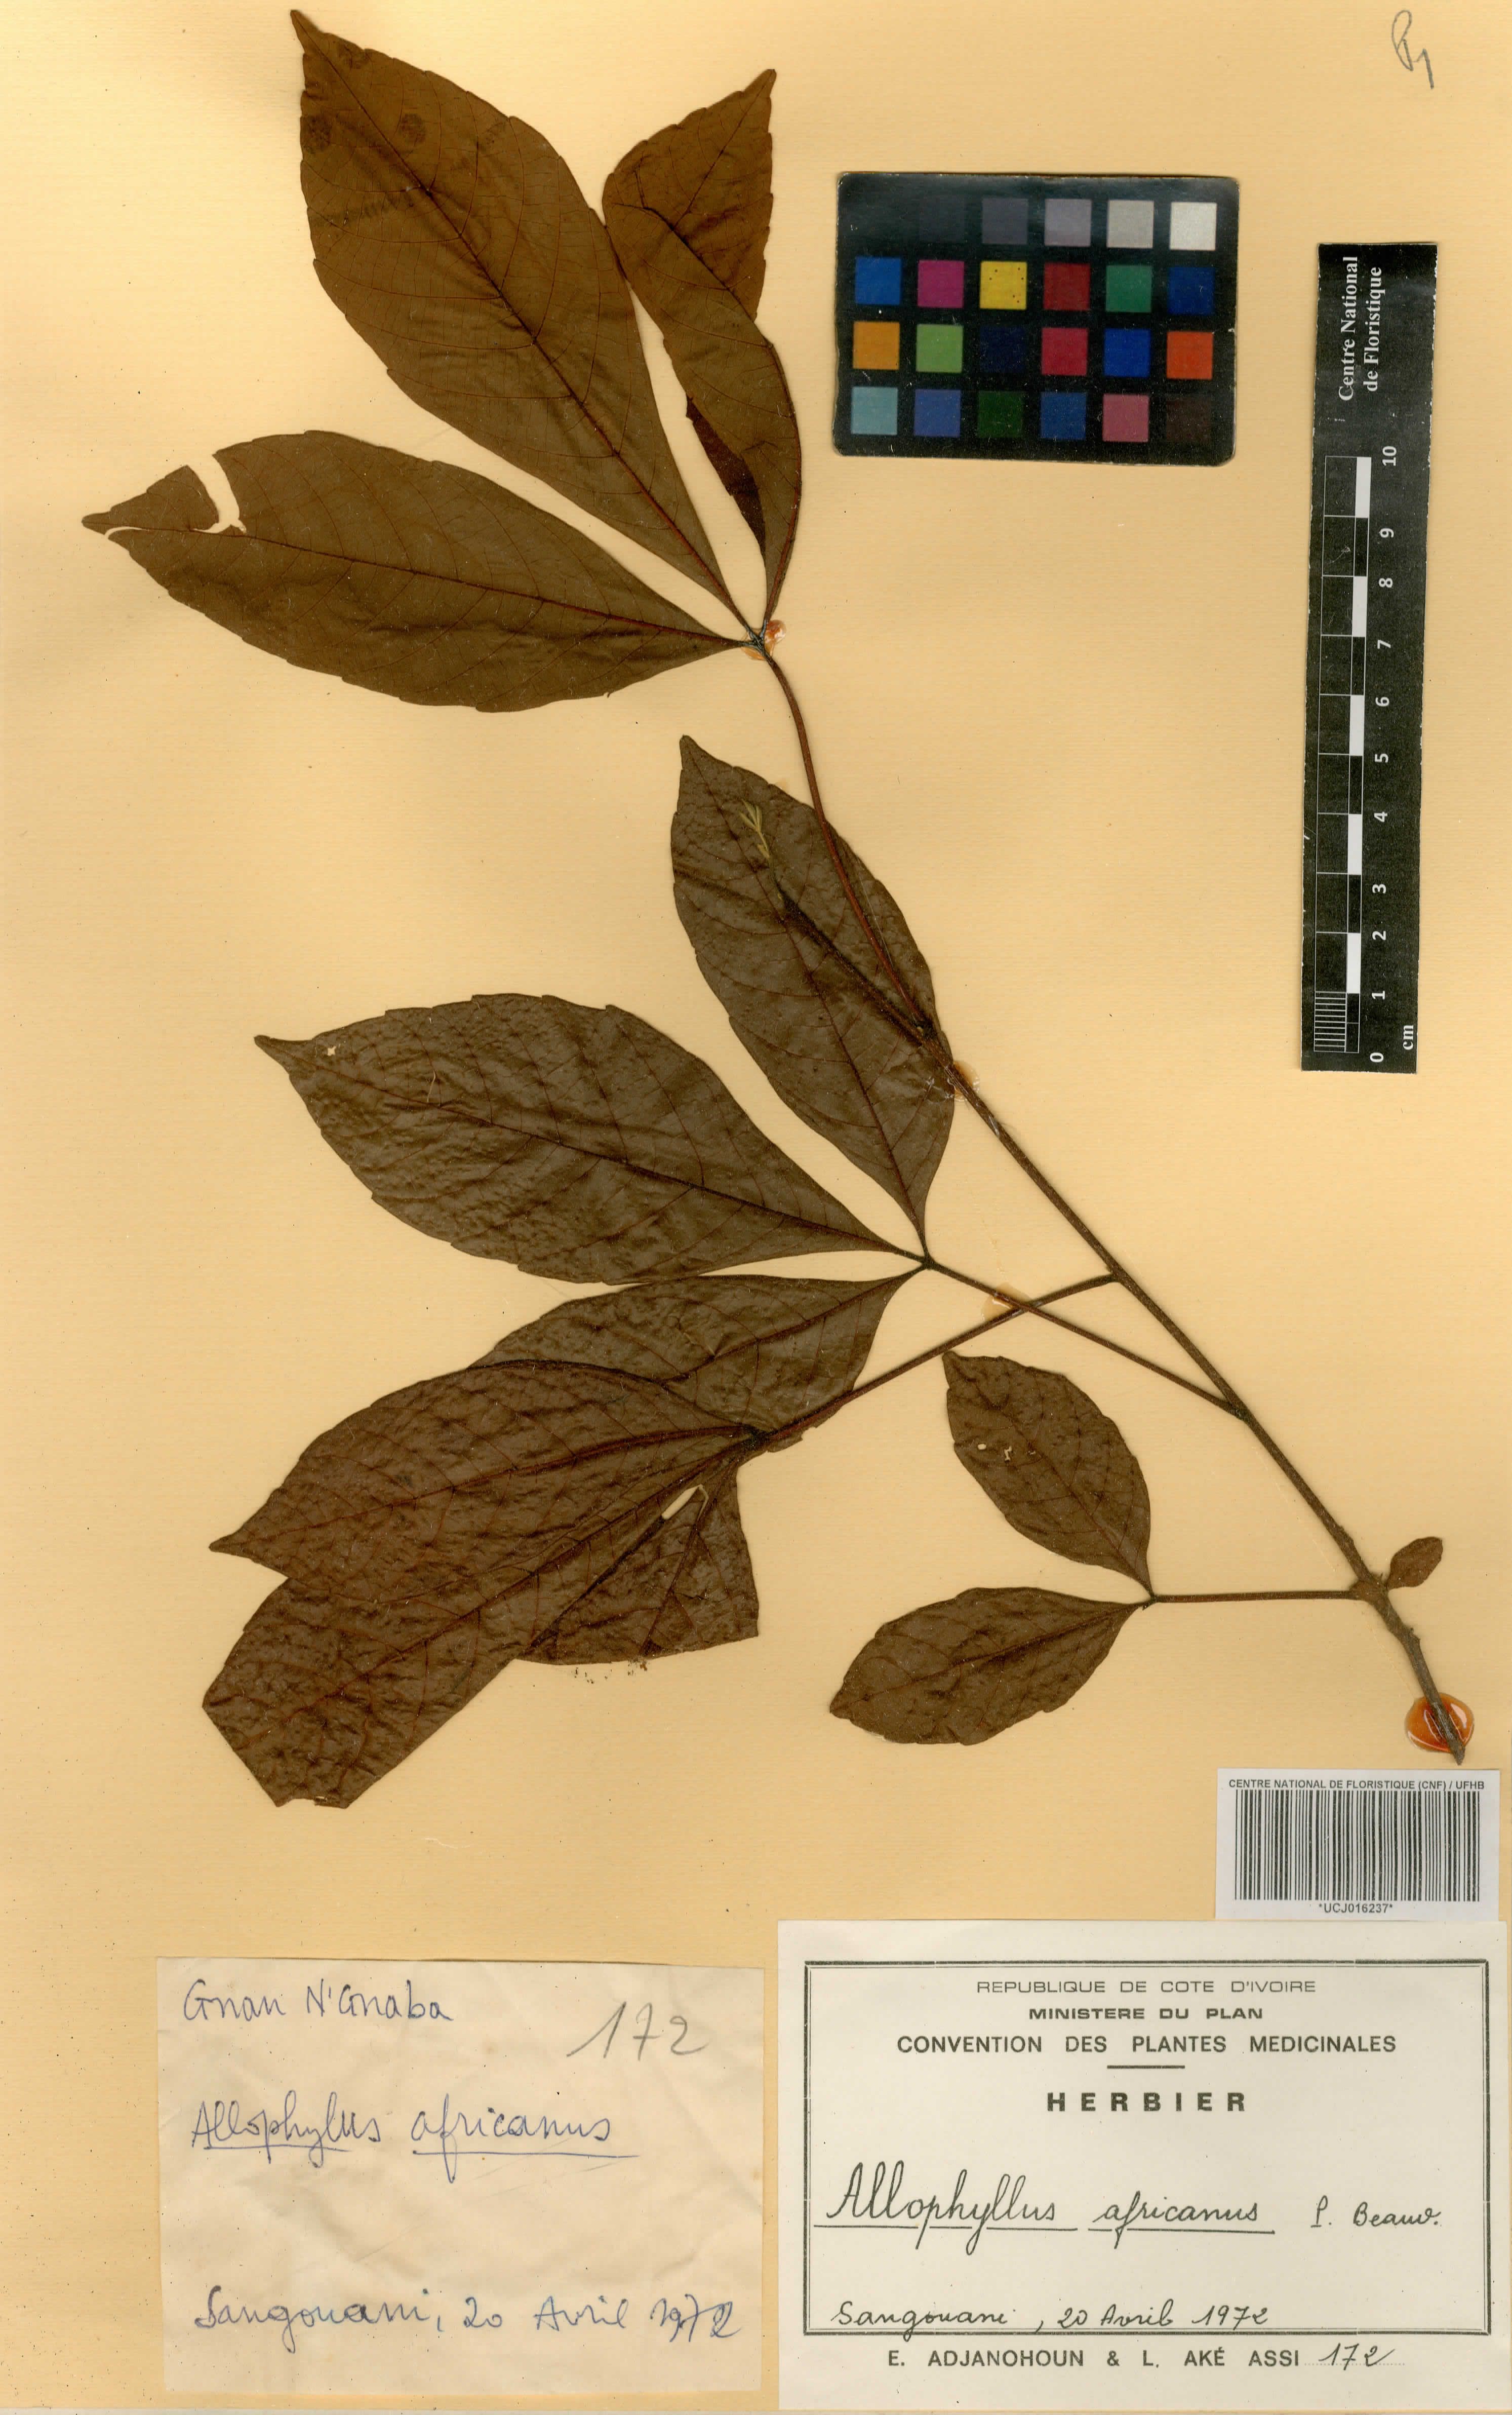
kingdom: Plantae
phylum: Tracheophyta
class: Magnoliopsida
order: Sapindales
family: Sapindaceae
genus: Allophylus
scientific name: Allophylus africanus
